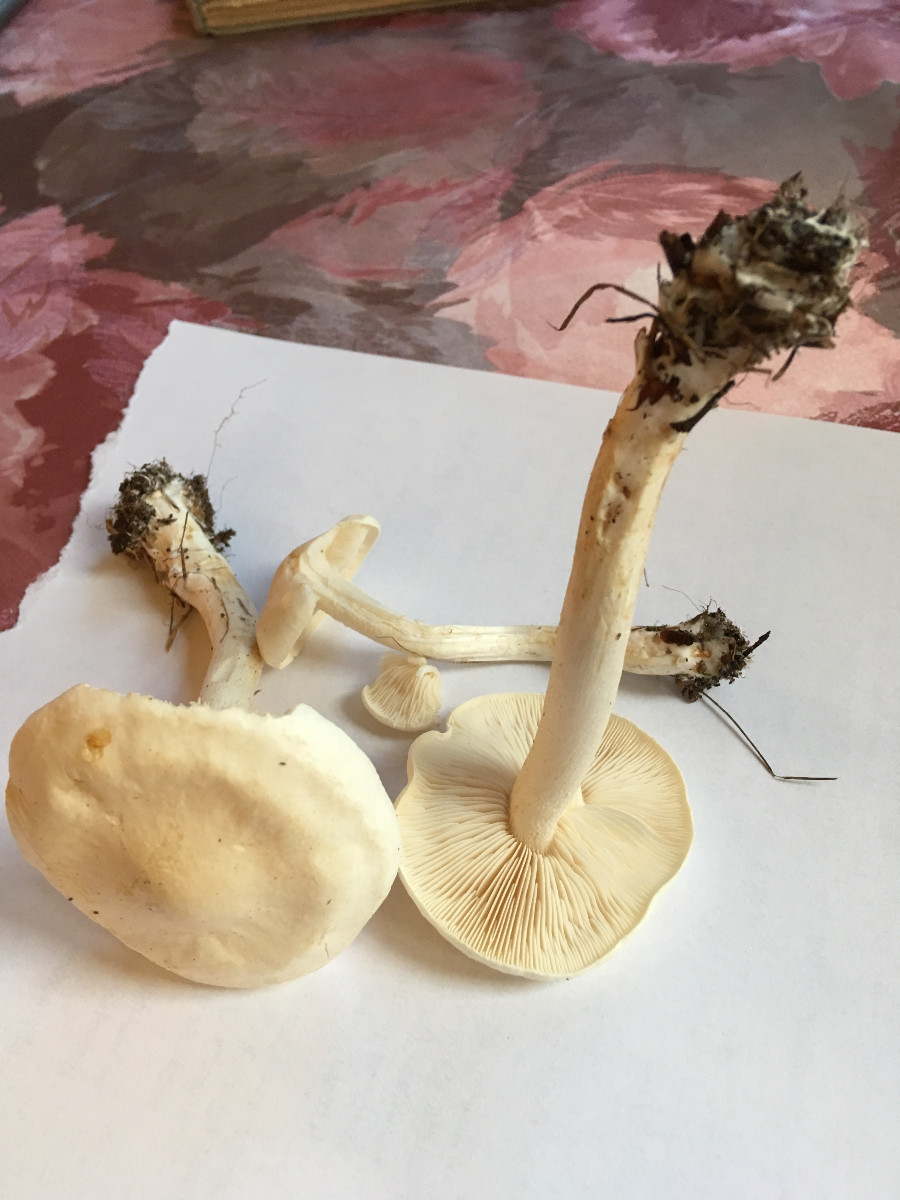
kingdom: Fungi
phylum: Basidiomycota
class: Agaricomycetes
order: Agaricales
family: Tricholomataceae
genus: Tricholoma
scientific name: Tricholoma lascivum
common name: stinkende ridderhat
